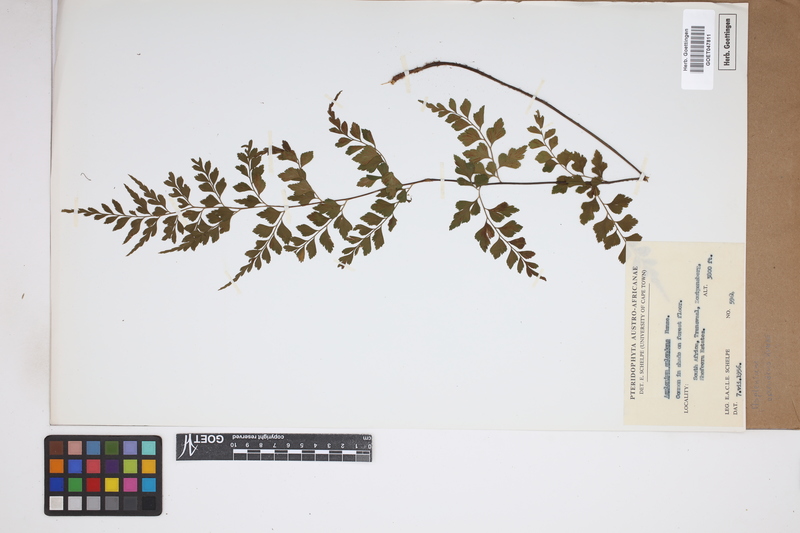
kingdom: Plantae
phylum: Tracheophyta
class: Polypodiopsida
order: Polypodiales
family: Aspleniaceae
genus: Asplenium
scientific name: Asplenium splendens
